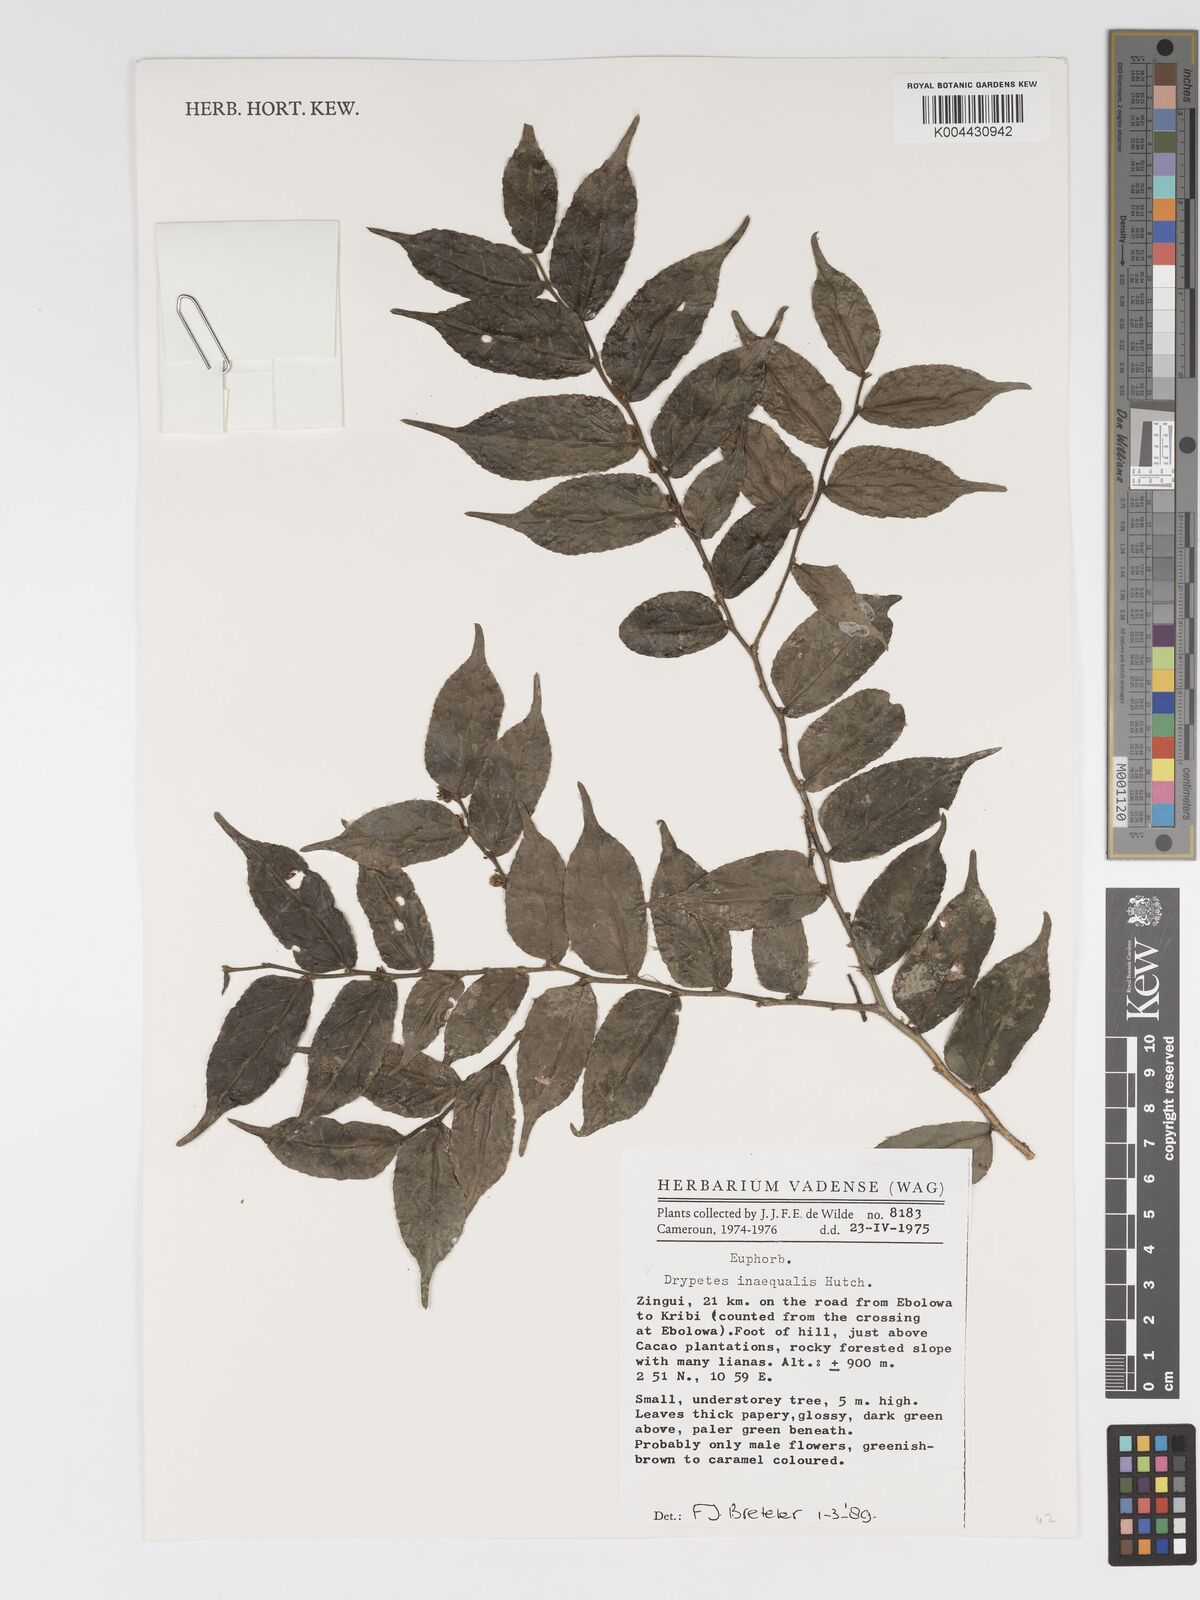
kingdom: Plantae
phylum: Tracheophyta
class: Magnoliopsida
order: Malpighiales
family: Putranjivaceae
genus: Drypetes
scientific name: Drypetes inaequalis
